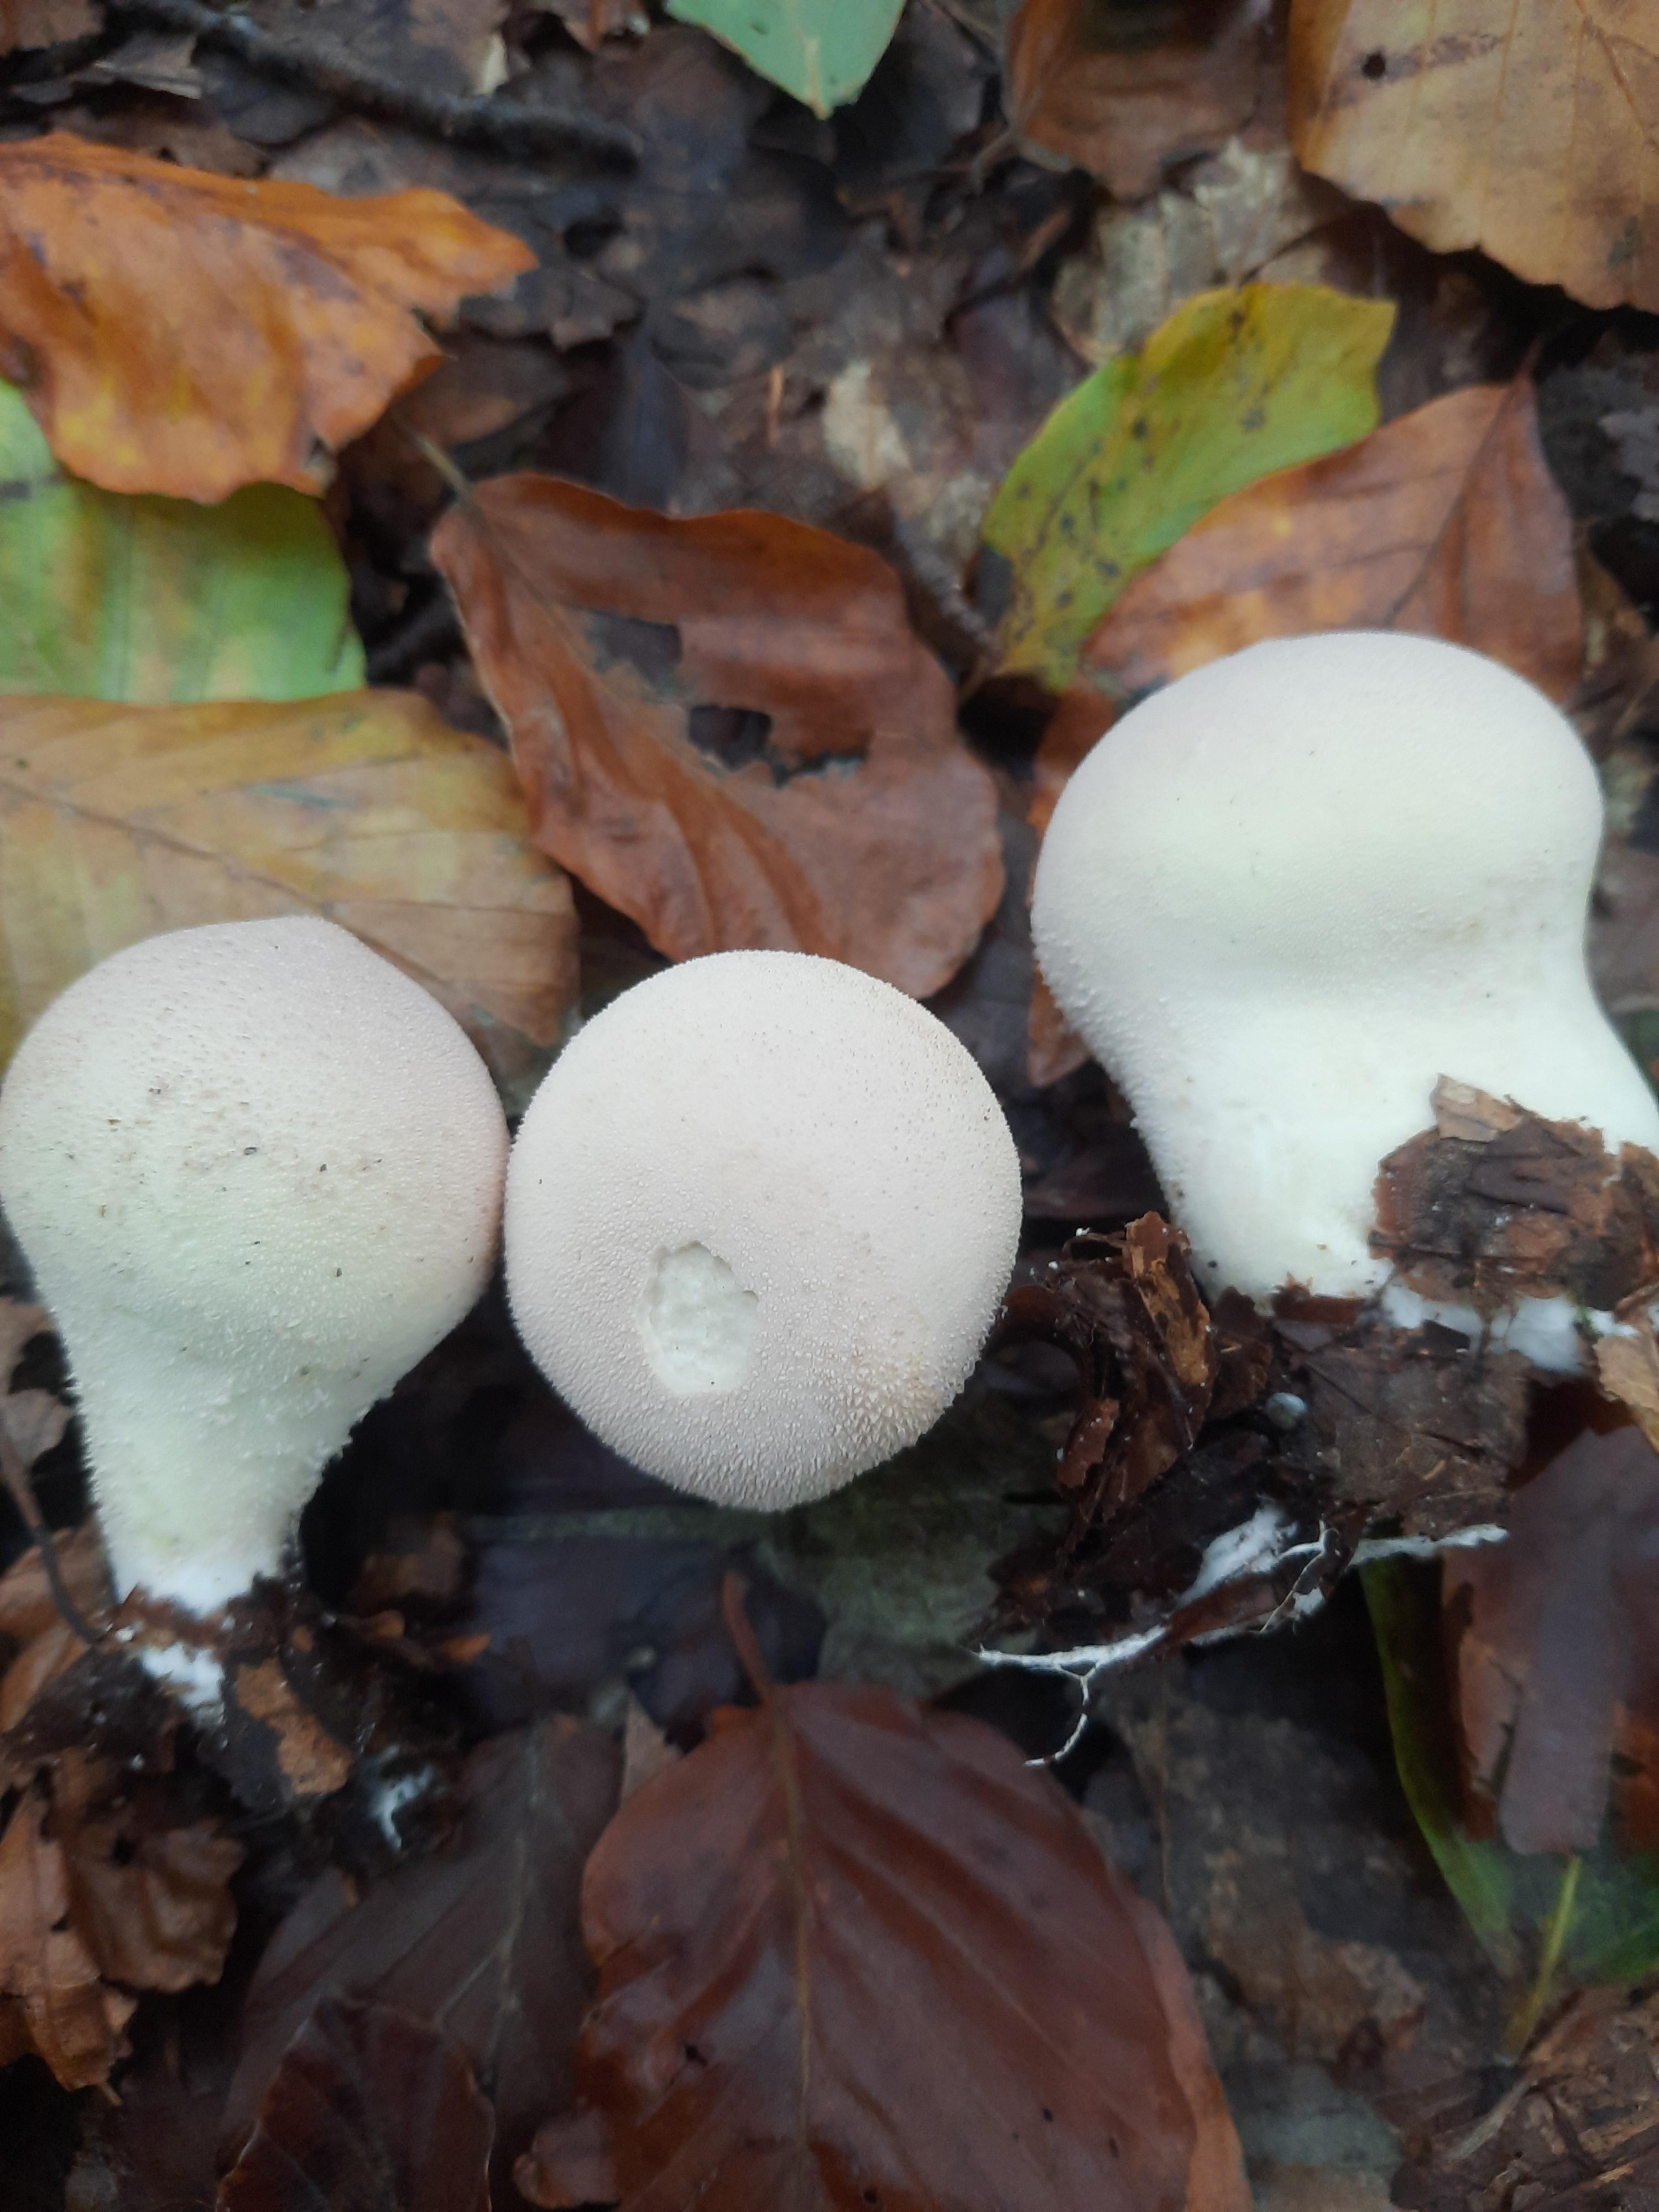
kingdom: Fungi
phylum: Basidiomycota
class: Agaricomycetes
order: Agaricales
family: Lycoperdaceae
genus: Lycoperdon
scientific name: Lycoperdon molle
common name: skov-støvbold
